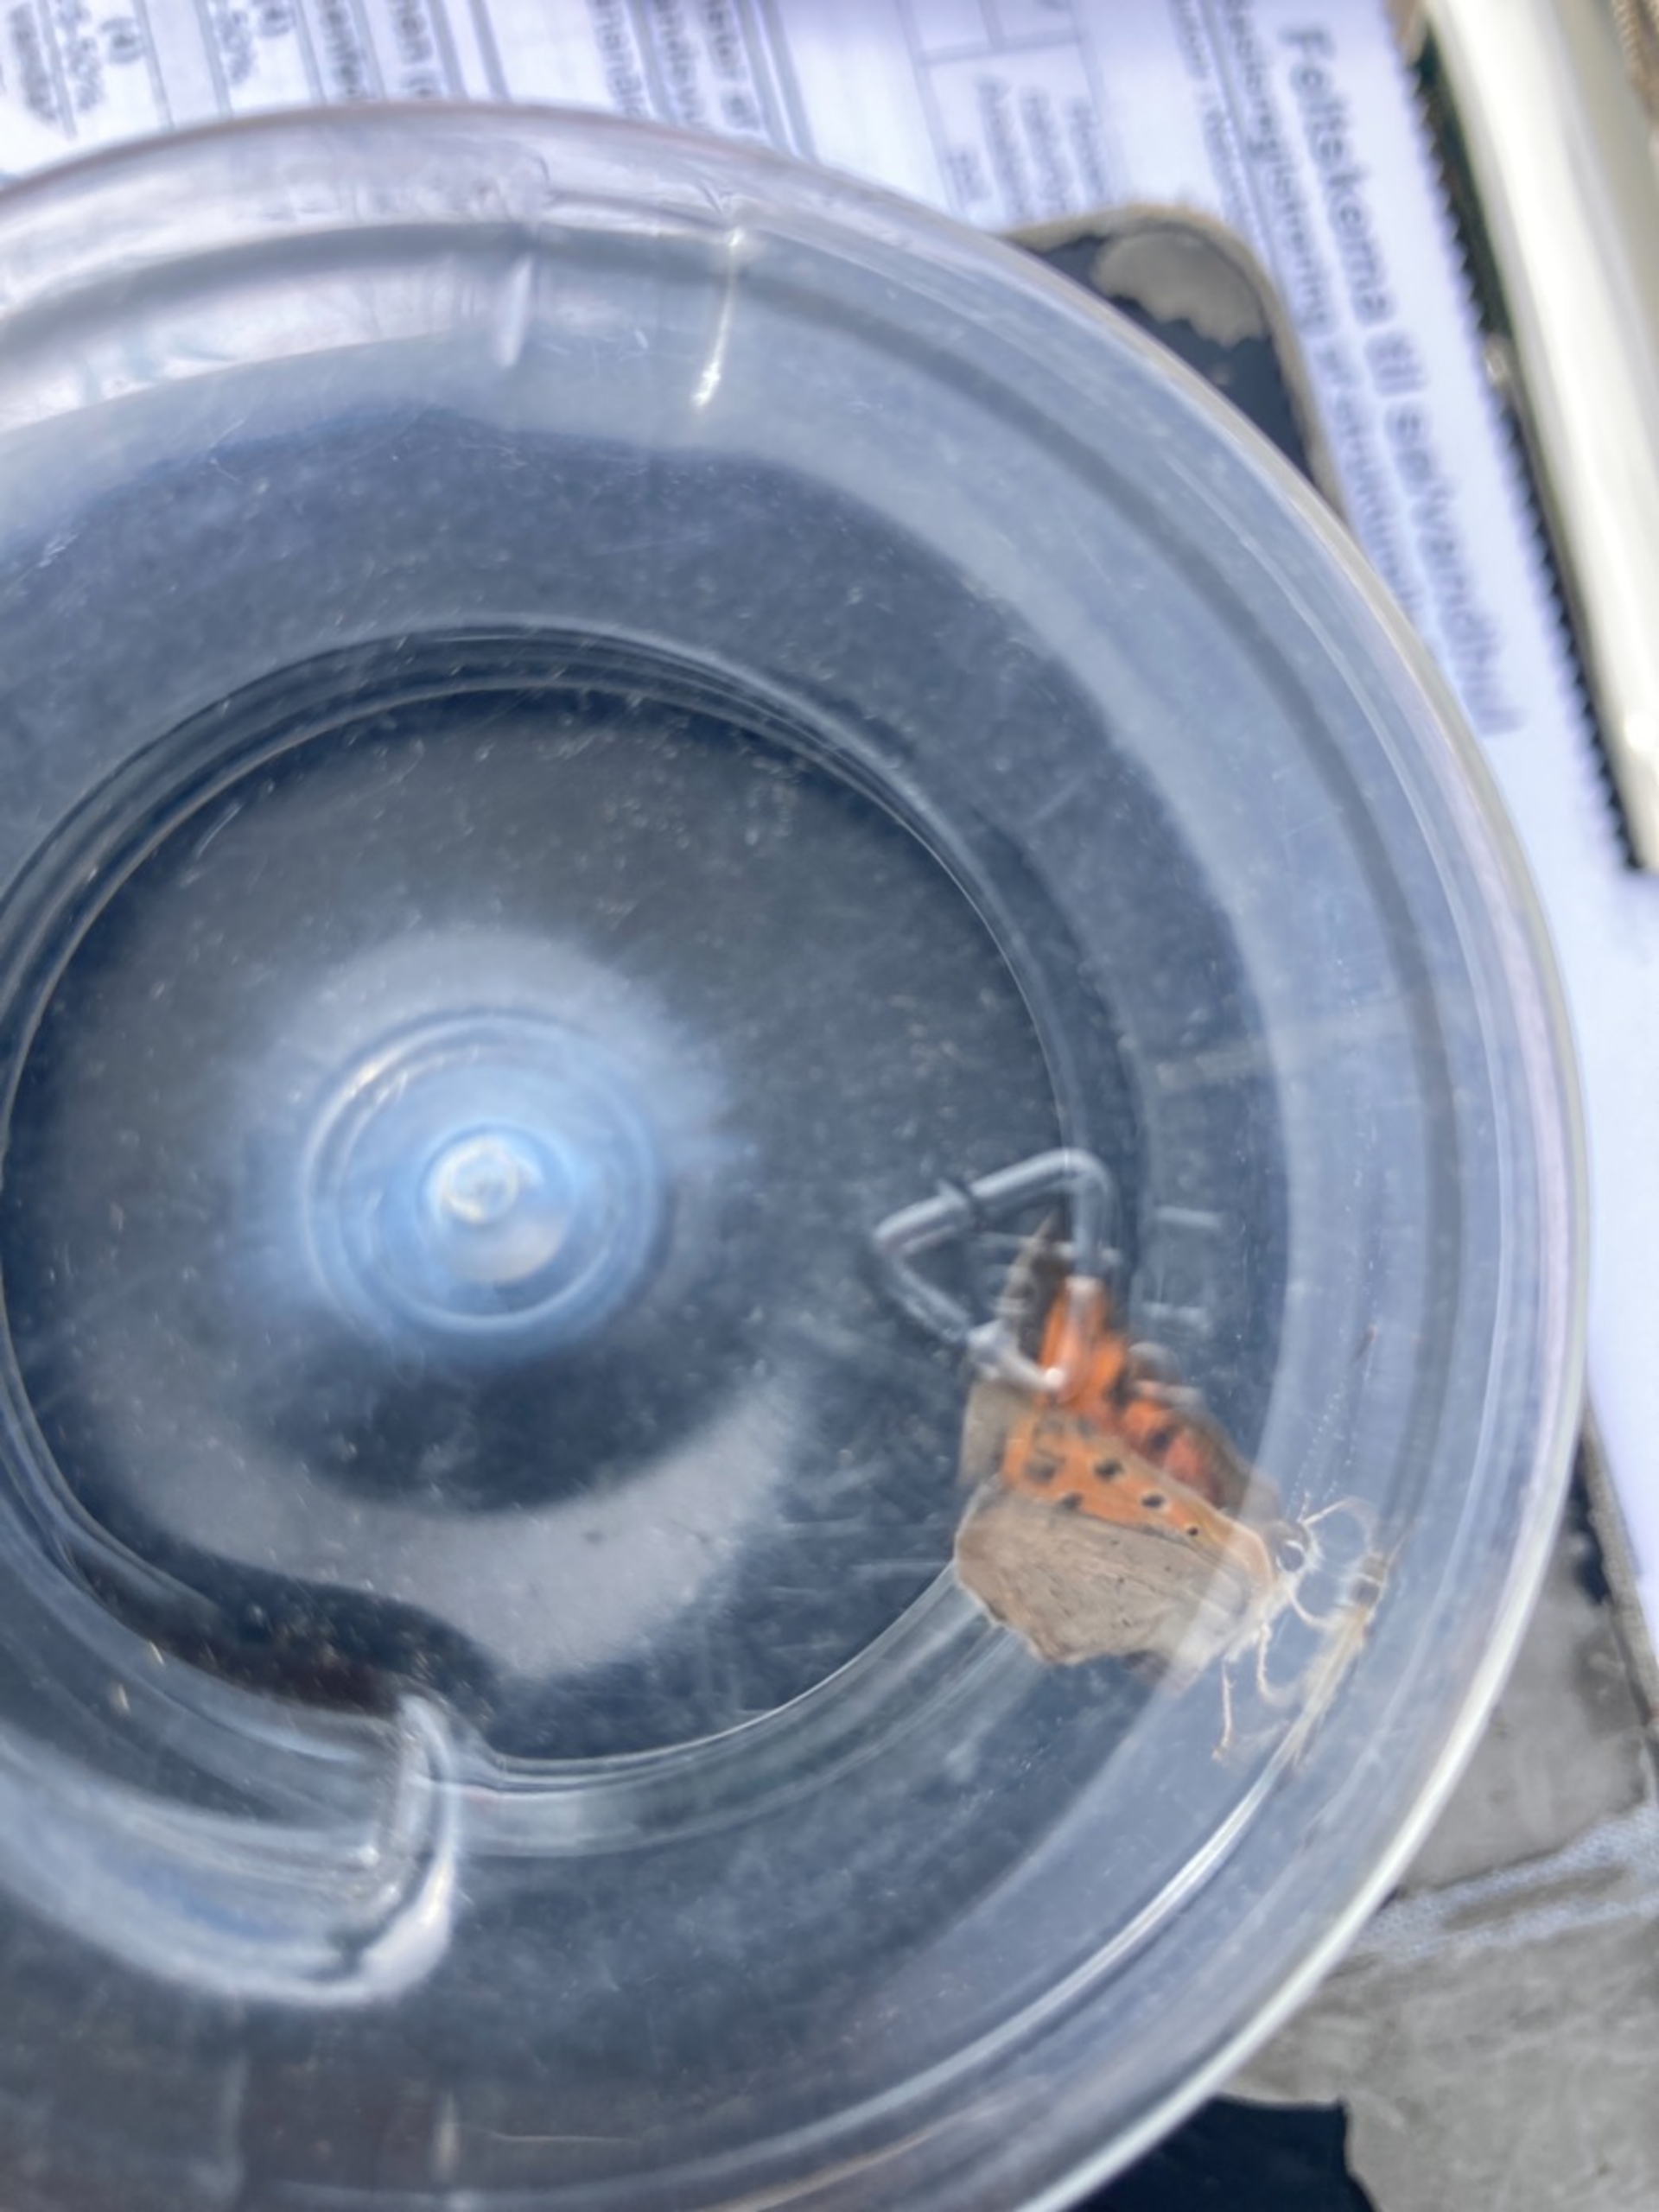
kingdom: Animalia
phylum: Arthropoda
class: Insecta
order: Lepidoptera
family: Lycaenidae
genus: Lycaena
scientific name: Lycaena phlaeas
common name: Lille ildfugl
